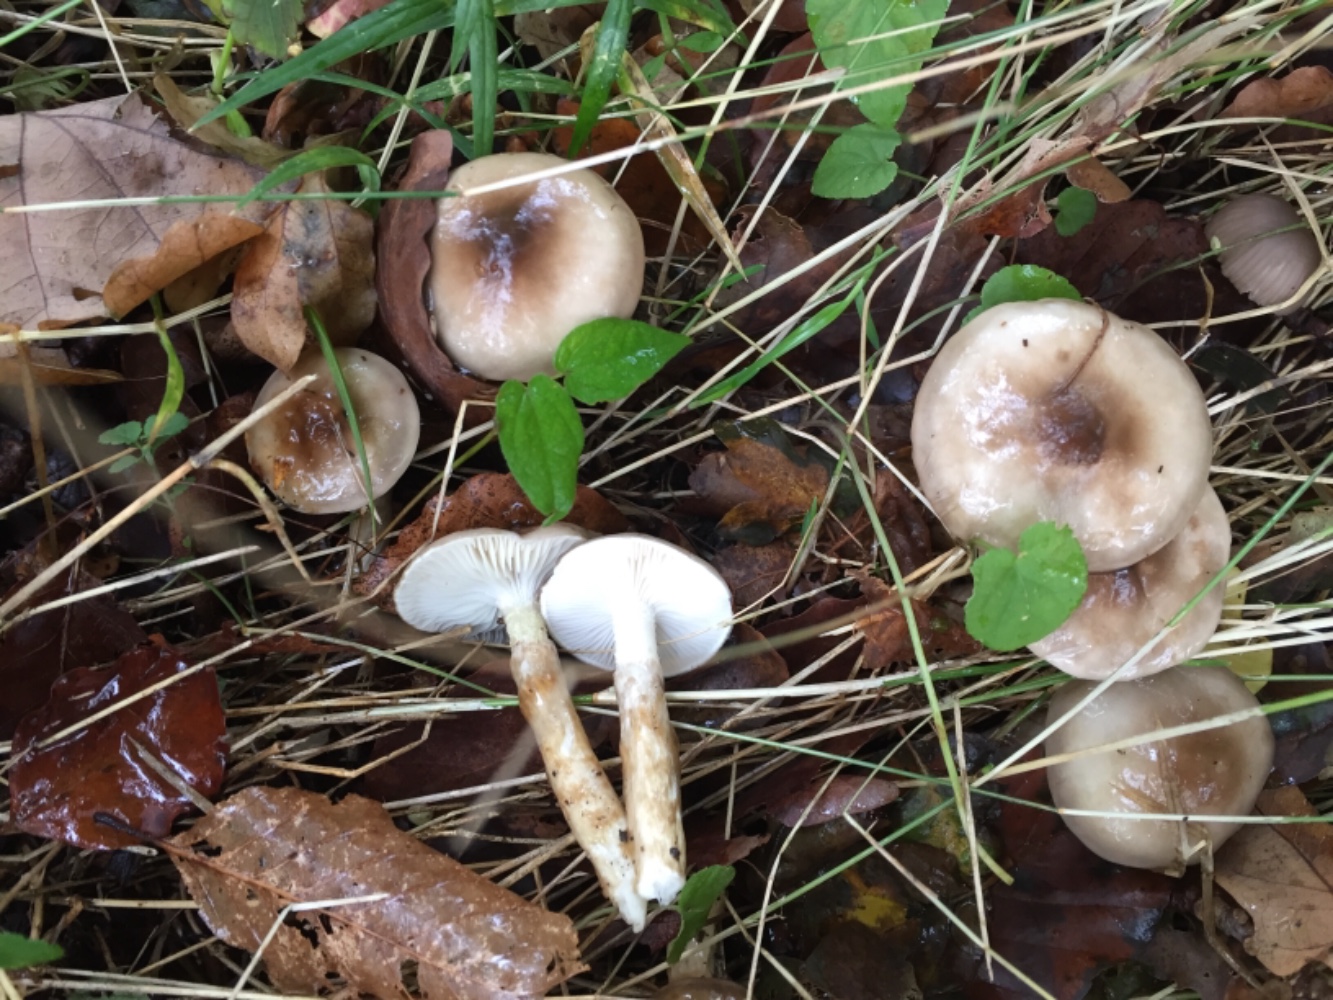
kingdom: Fungi
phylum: Basidiomycota
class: Agaricomycetes
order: Agaricales
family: Hygrophoraceae
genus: Hygrophorus
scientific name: Hygrophorus mesotephrus
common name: askegrå sneglehat
